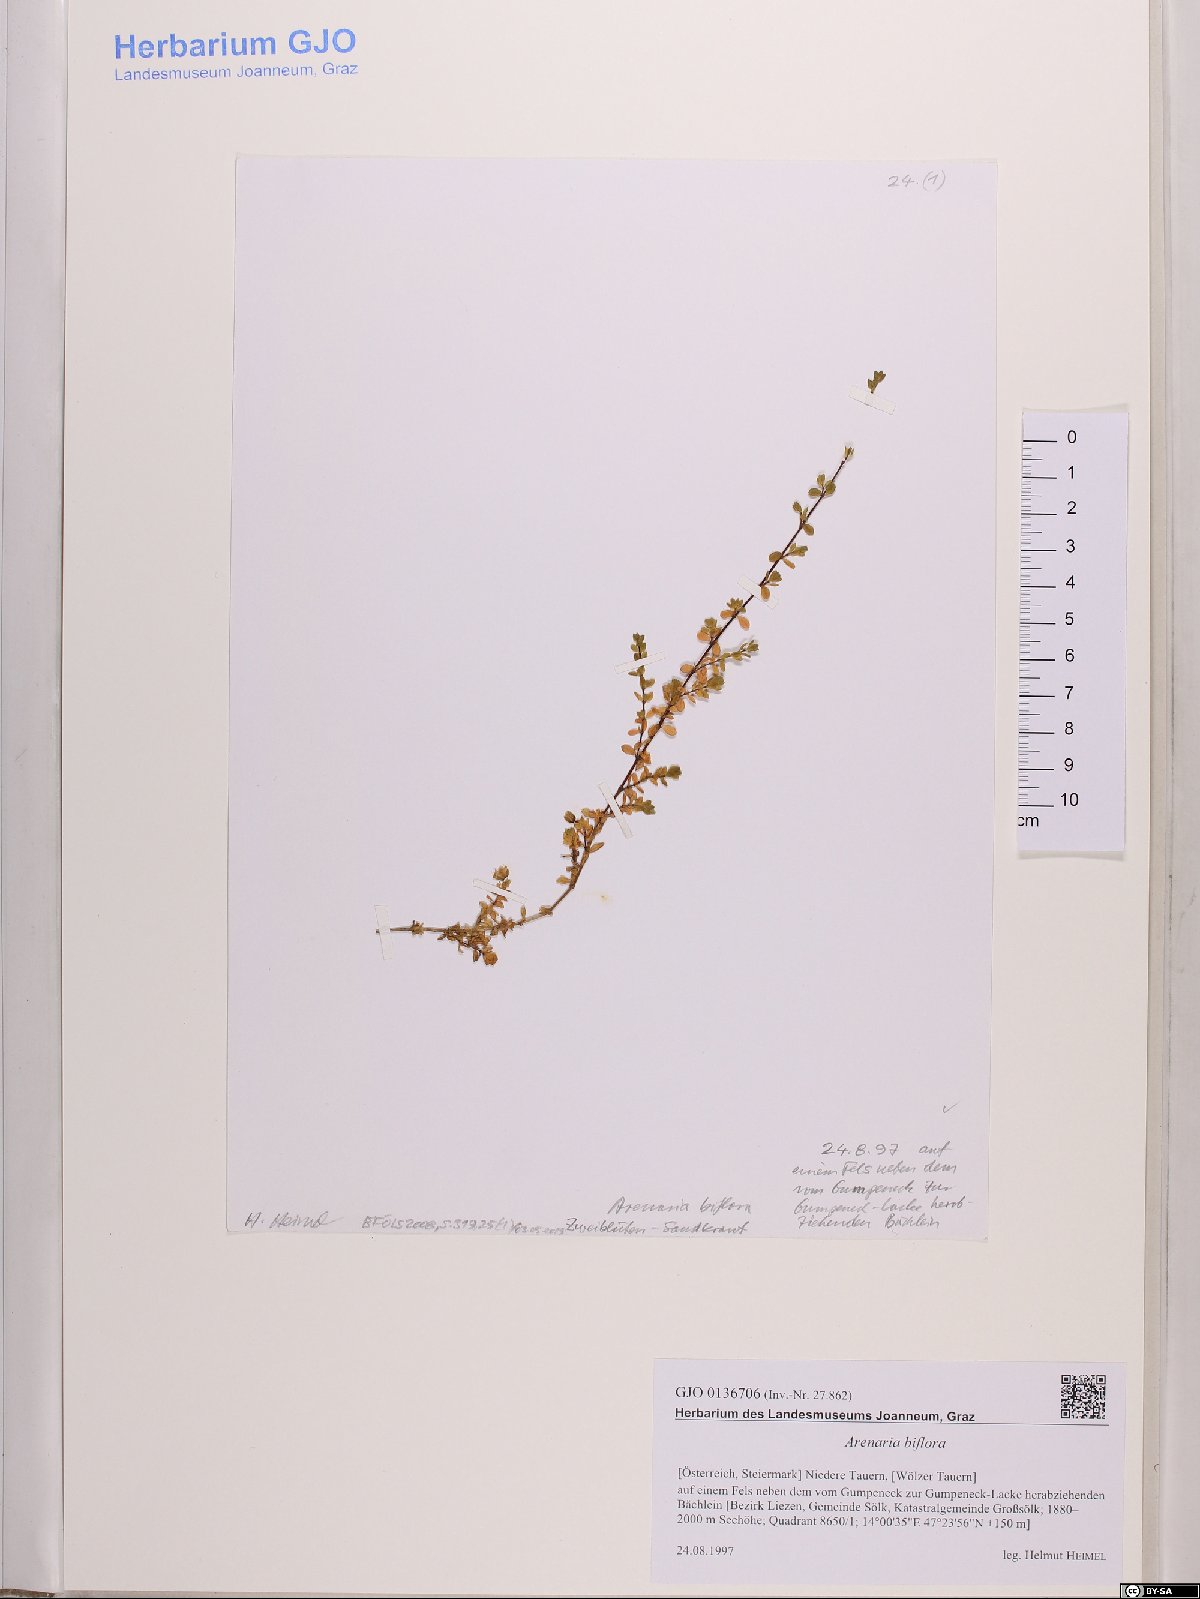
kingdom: Plantae
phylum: Tracheophyta
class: Magnoliopsida
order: Caryophyllales
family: Caryophyllaceae
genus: Arenaria
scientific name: Arenaria biflora
